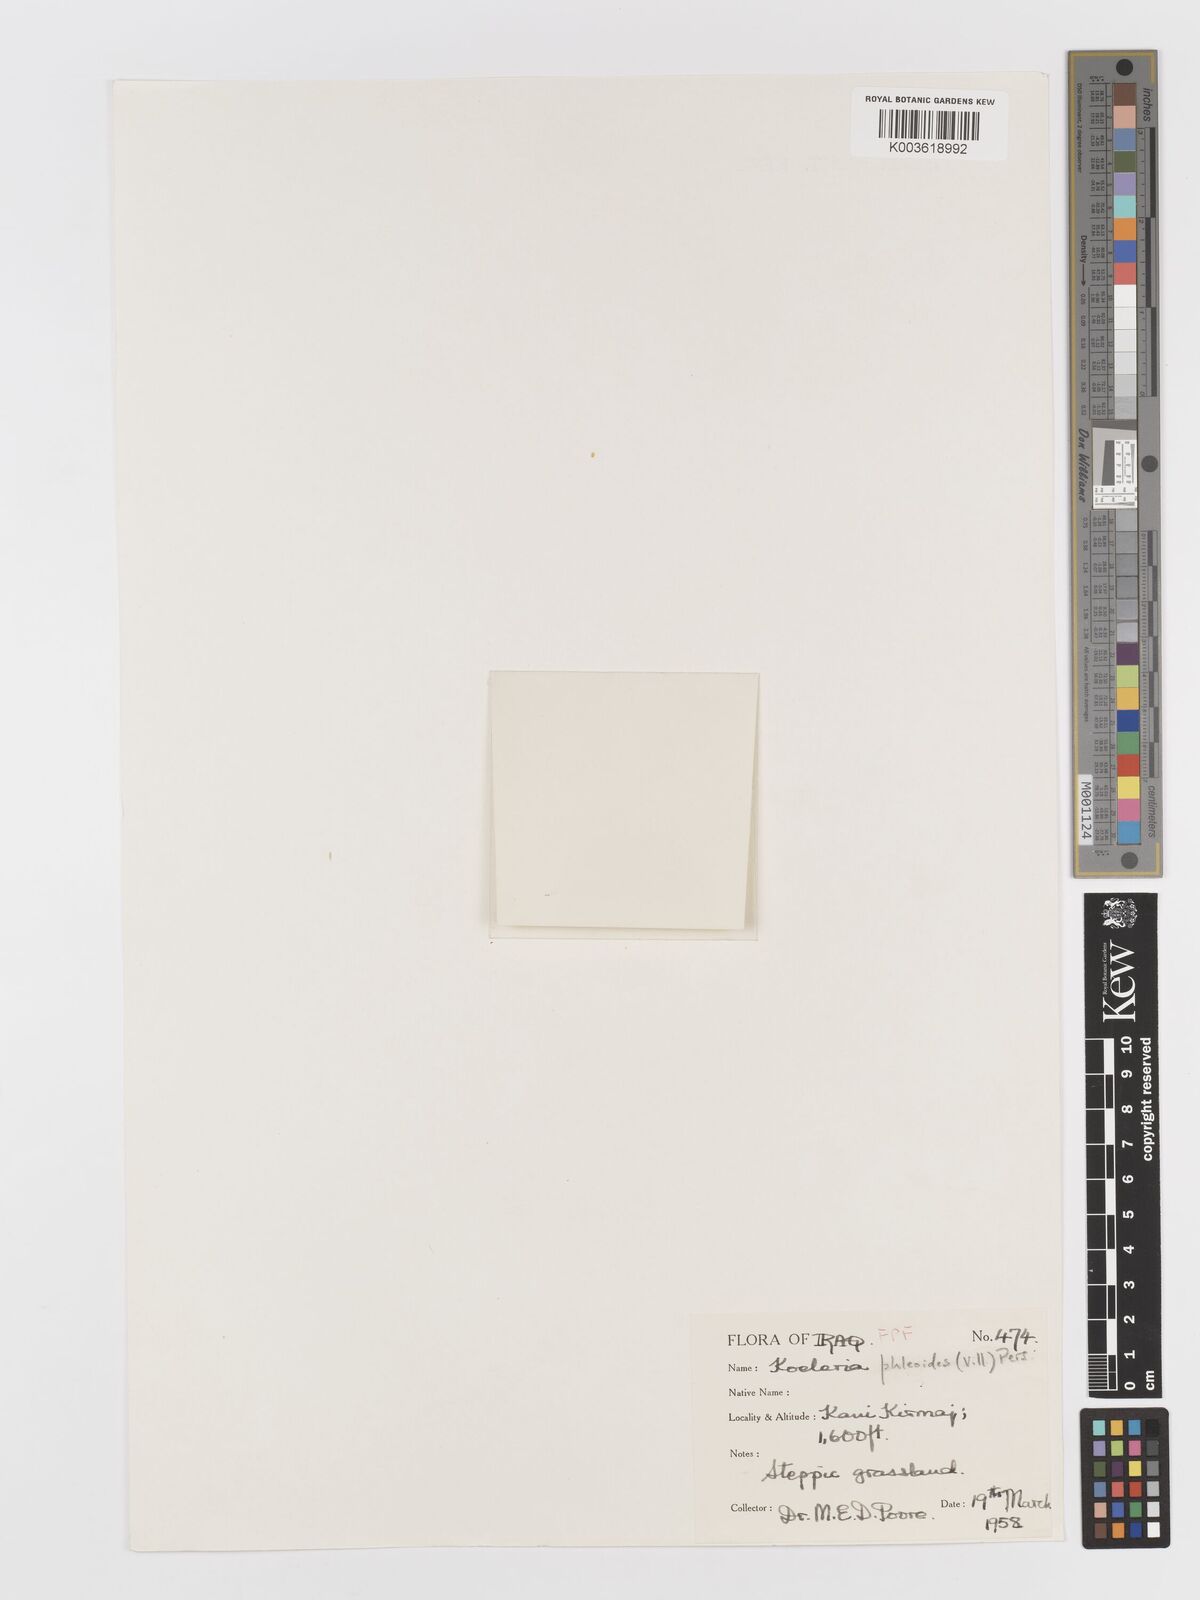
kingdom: Plantae
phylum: Tracheophyta
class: Liliopsida
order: Poales
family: Poaceae
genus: Rostraria
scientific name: Rostraria cristata
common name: Mediterranean hair-grass
